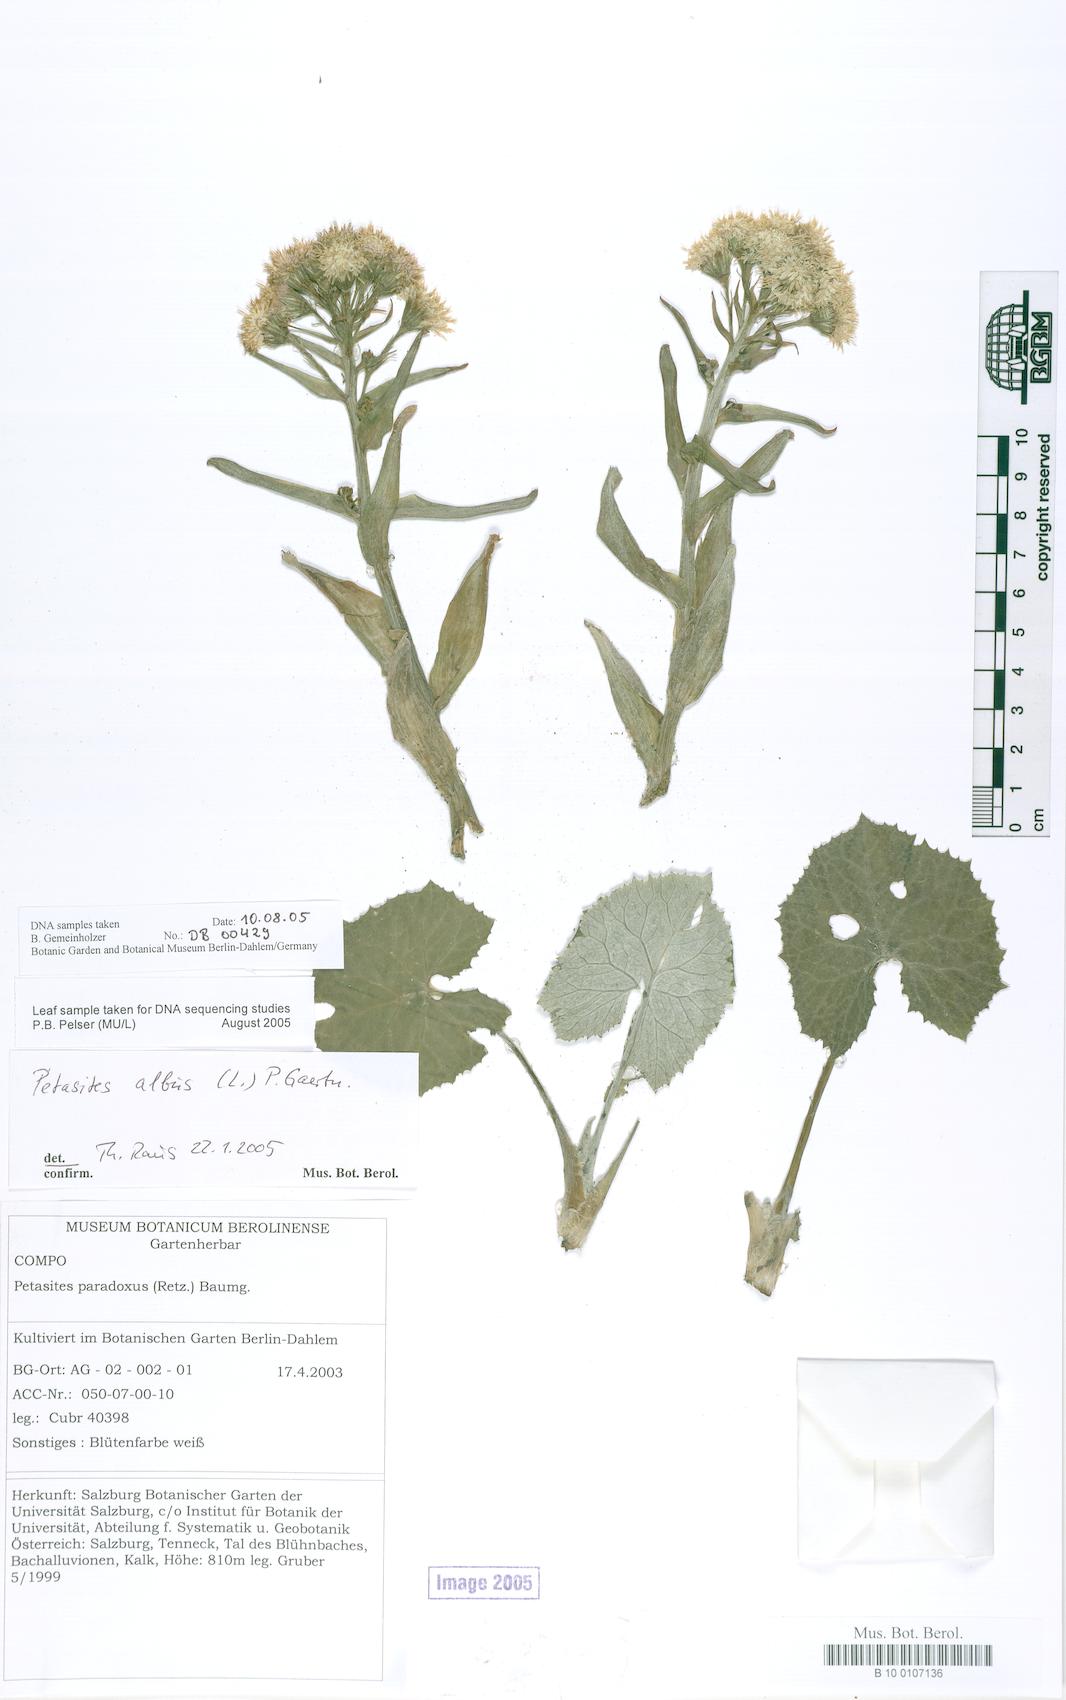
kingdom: Plantae
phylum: Tracheophyta
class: Magnoliopsida
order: Asterales
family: Asteraceae
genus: Petasites
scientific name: Petasites albus
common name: White butterbur
